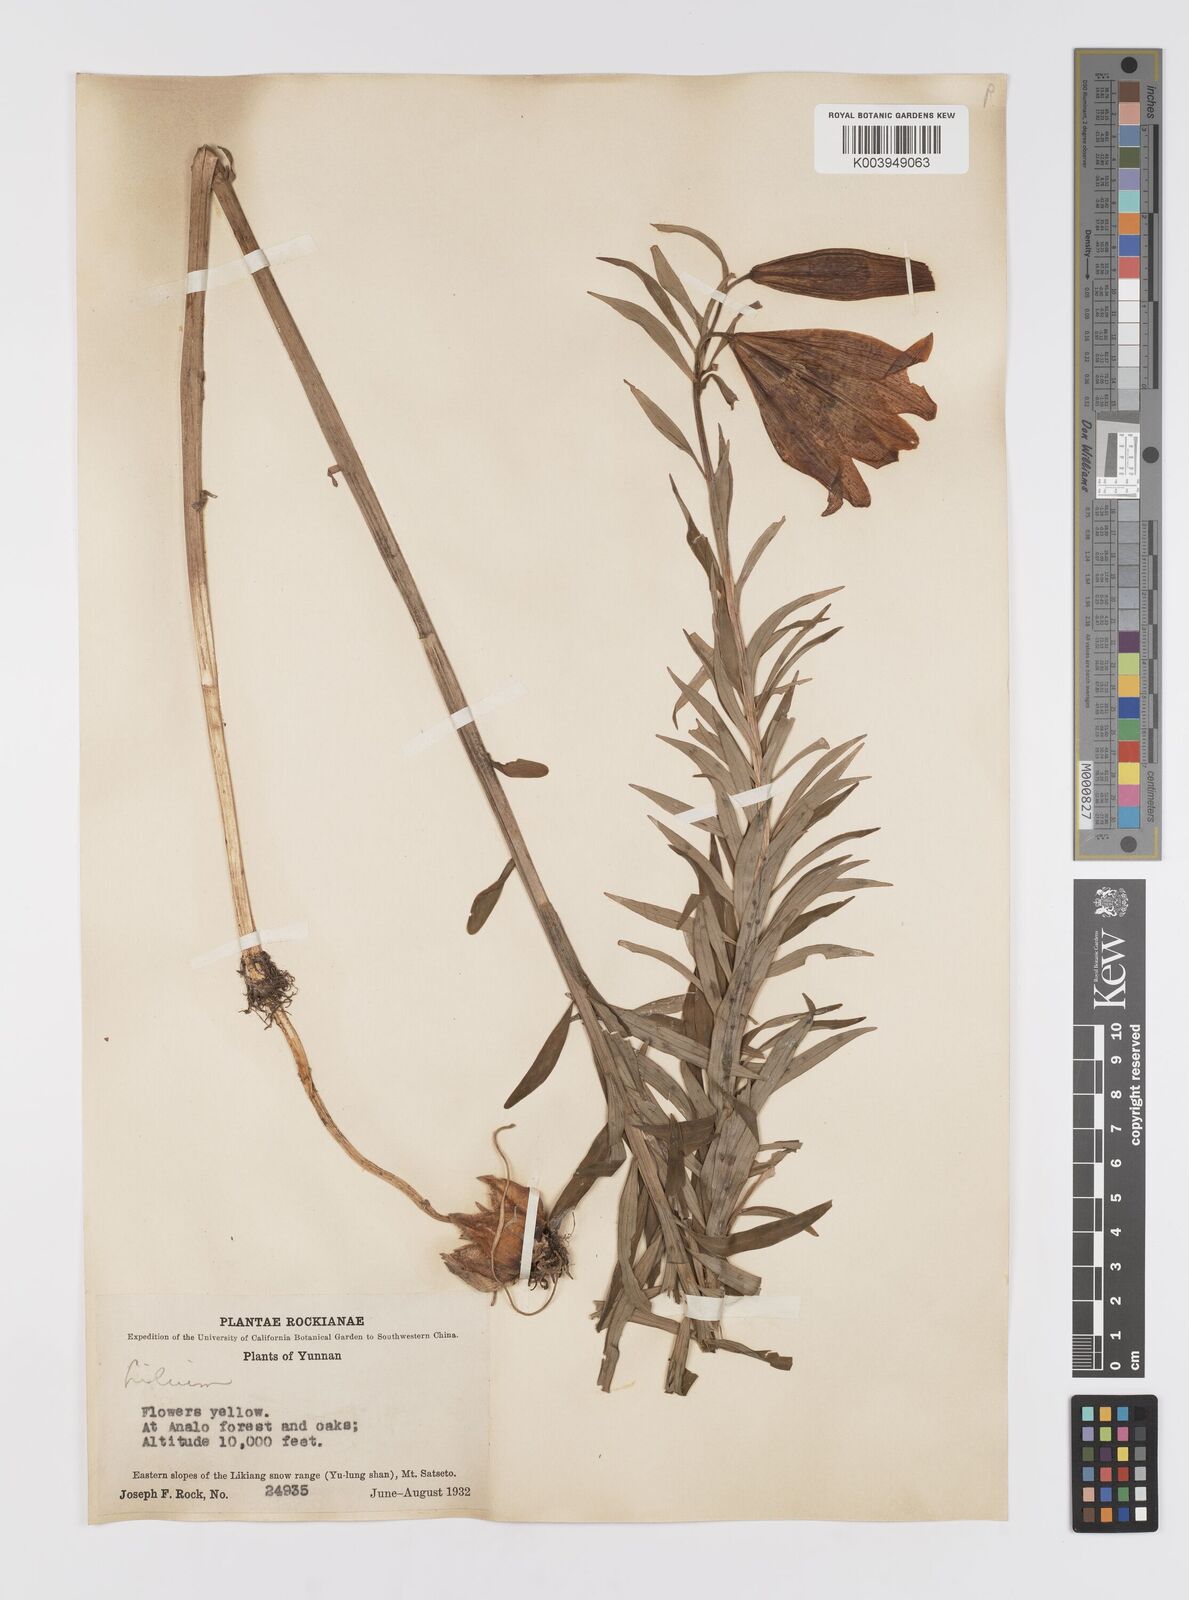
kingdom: Plantae
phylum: Tracheophyta
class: Liliopsida
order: Liliales
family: Liliaceae
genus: Lilium
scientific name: Lilium bakerianum
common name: Baker's lily
